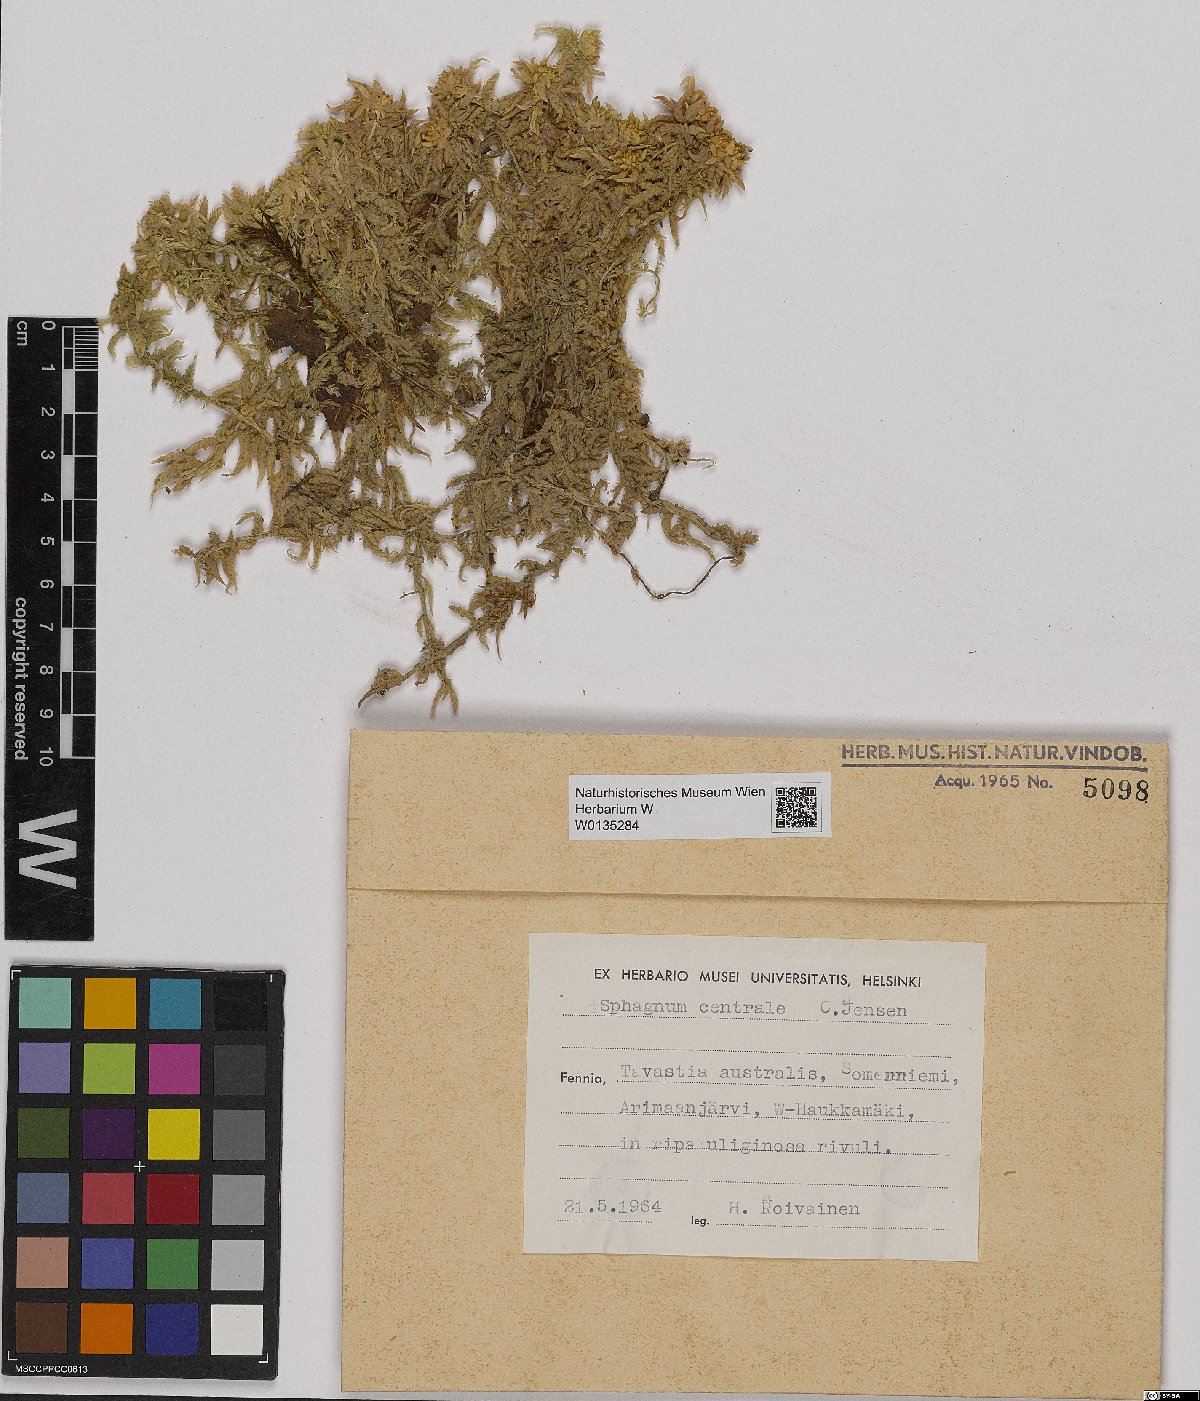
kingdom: Plantae
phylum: Bryophyta
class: Sphagnopsida
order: Sphagnales
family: Sphagnaceae
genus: Sphagnum
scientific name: Sphagnum centrale
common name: Central peat moss
